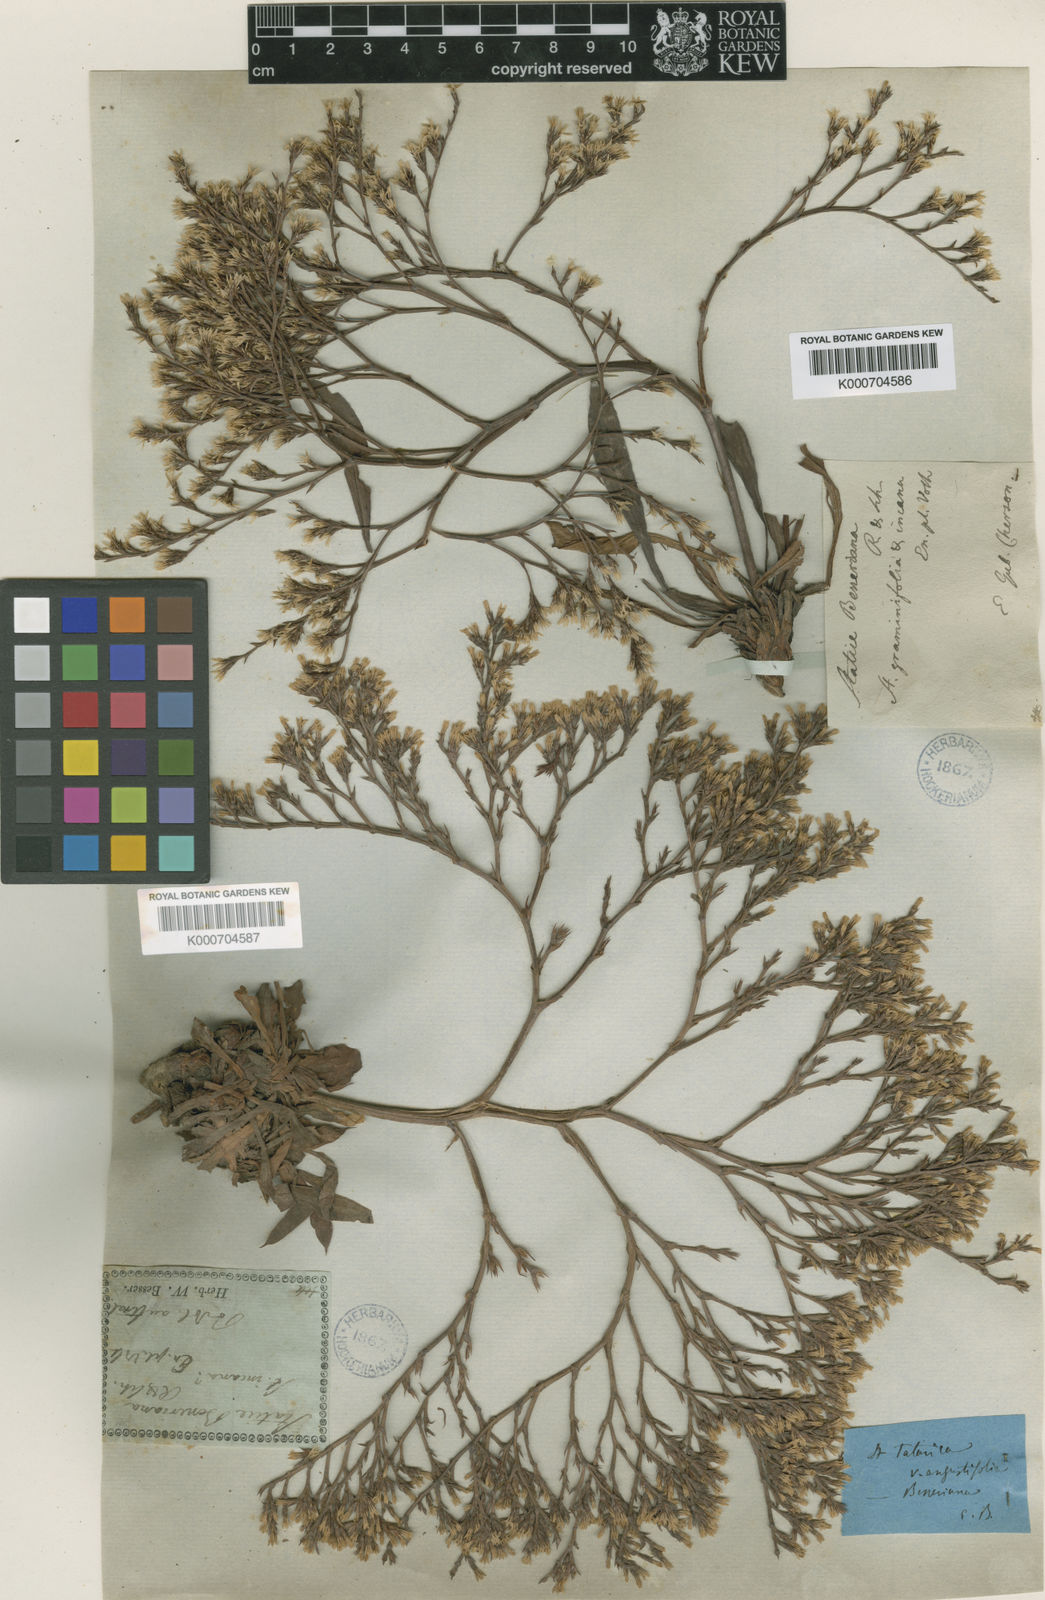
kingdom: Plantae
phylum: Tracheophyta
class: Magnoliopsida
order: Caryophyllales
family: Plumbaginaceae
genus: Goniolimon
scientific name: Goniolimon
